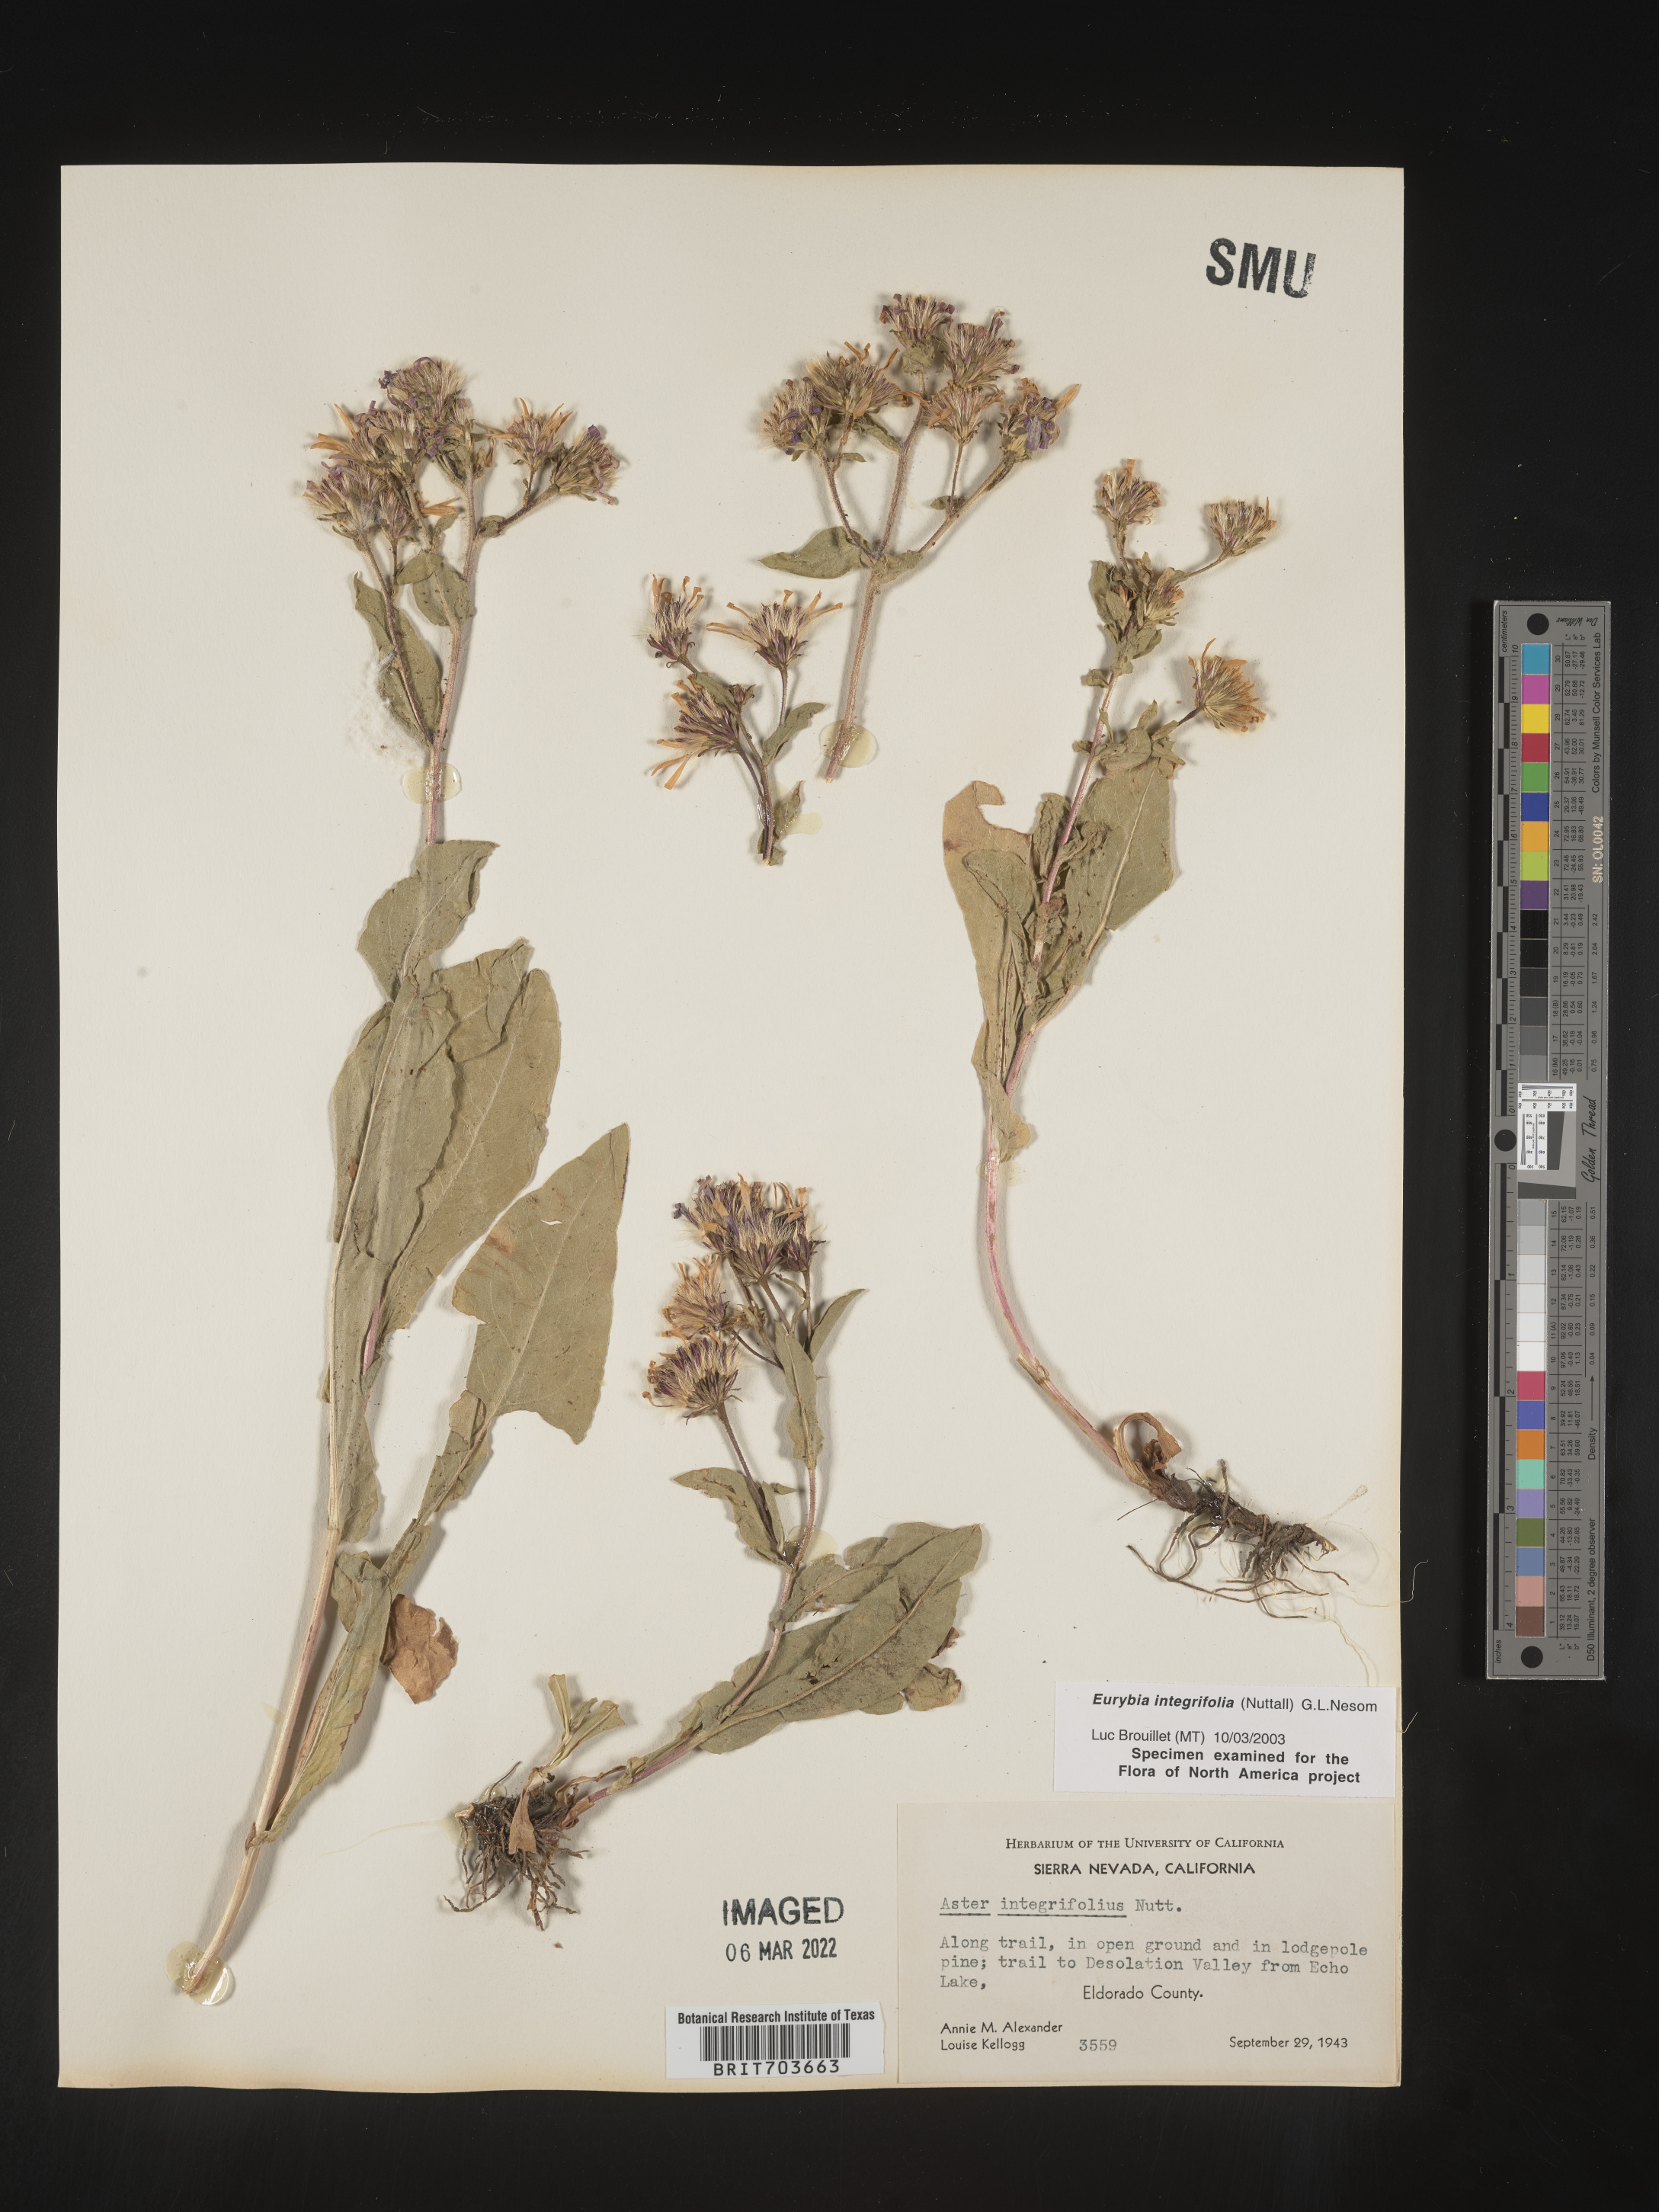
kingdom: Plantae
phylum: Tracheophyta
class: Magnoliopsida
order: Asterales
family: Asteraceae
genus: Eurybia
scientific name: Eurybia integrifolia
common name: Thick-stem aster
